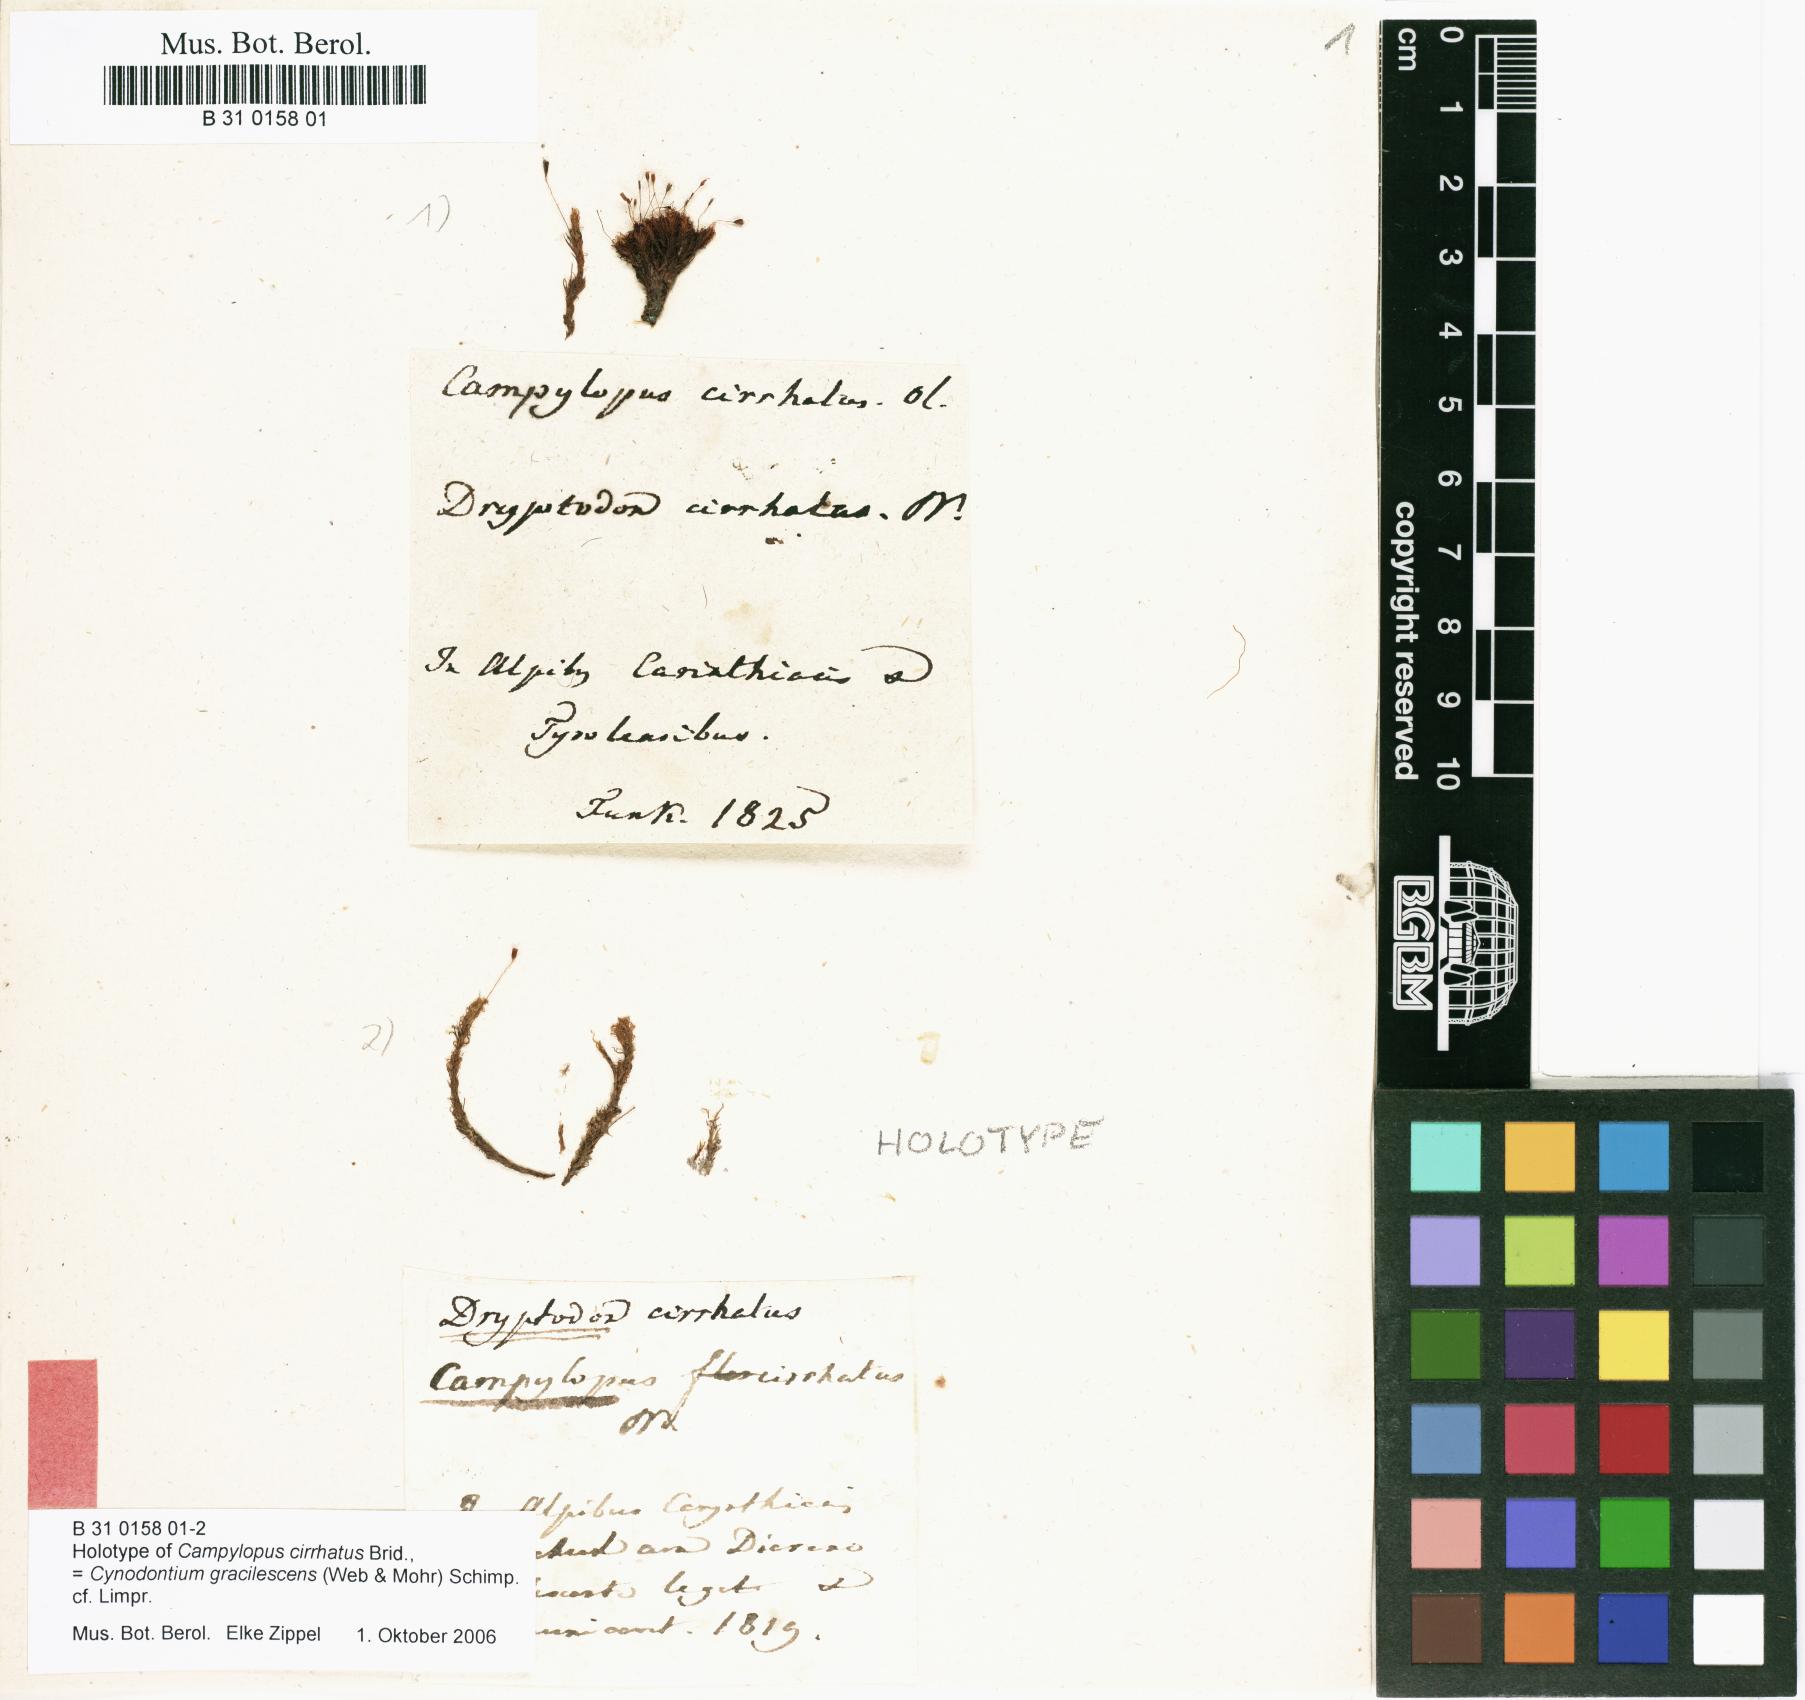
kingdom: Plantae
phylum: Bryophyta
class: Bryopsida
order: Dicranales
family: Rhabdoweisiaceae
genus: Cynodontium
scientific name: Cynodontium gracilescens
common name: Slender dogtooth moss
